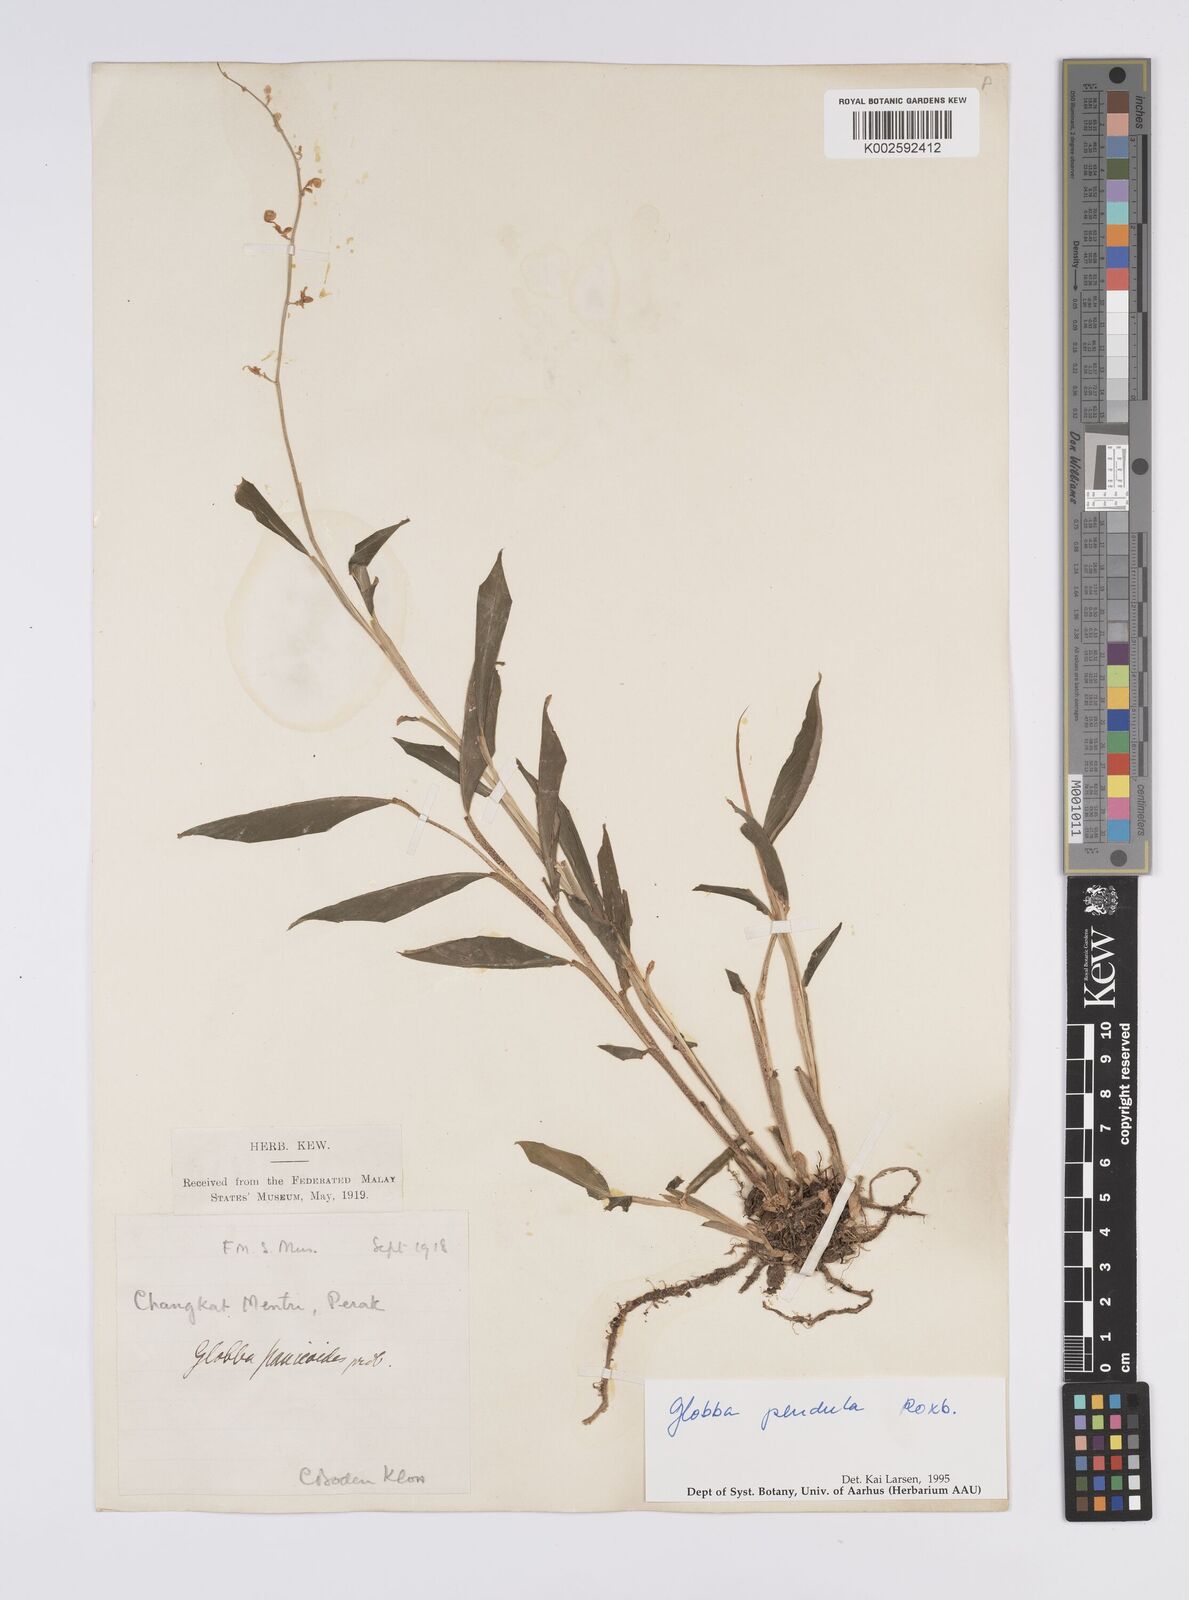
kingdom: Plantae
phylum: Tracheophyta
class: Liliopsida
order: Zingiberales
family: Zingiberaceae
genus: Globba
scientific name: Globba pendula
